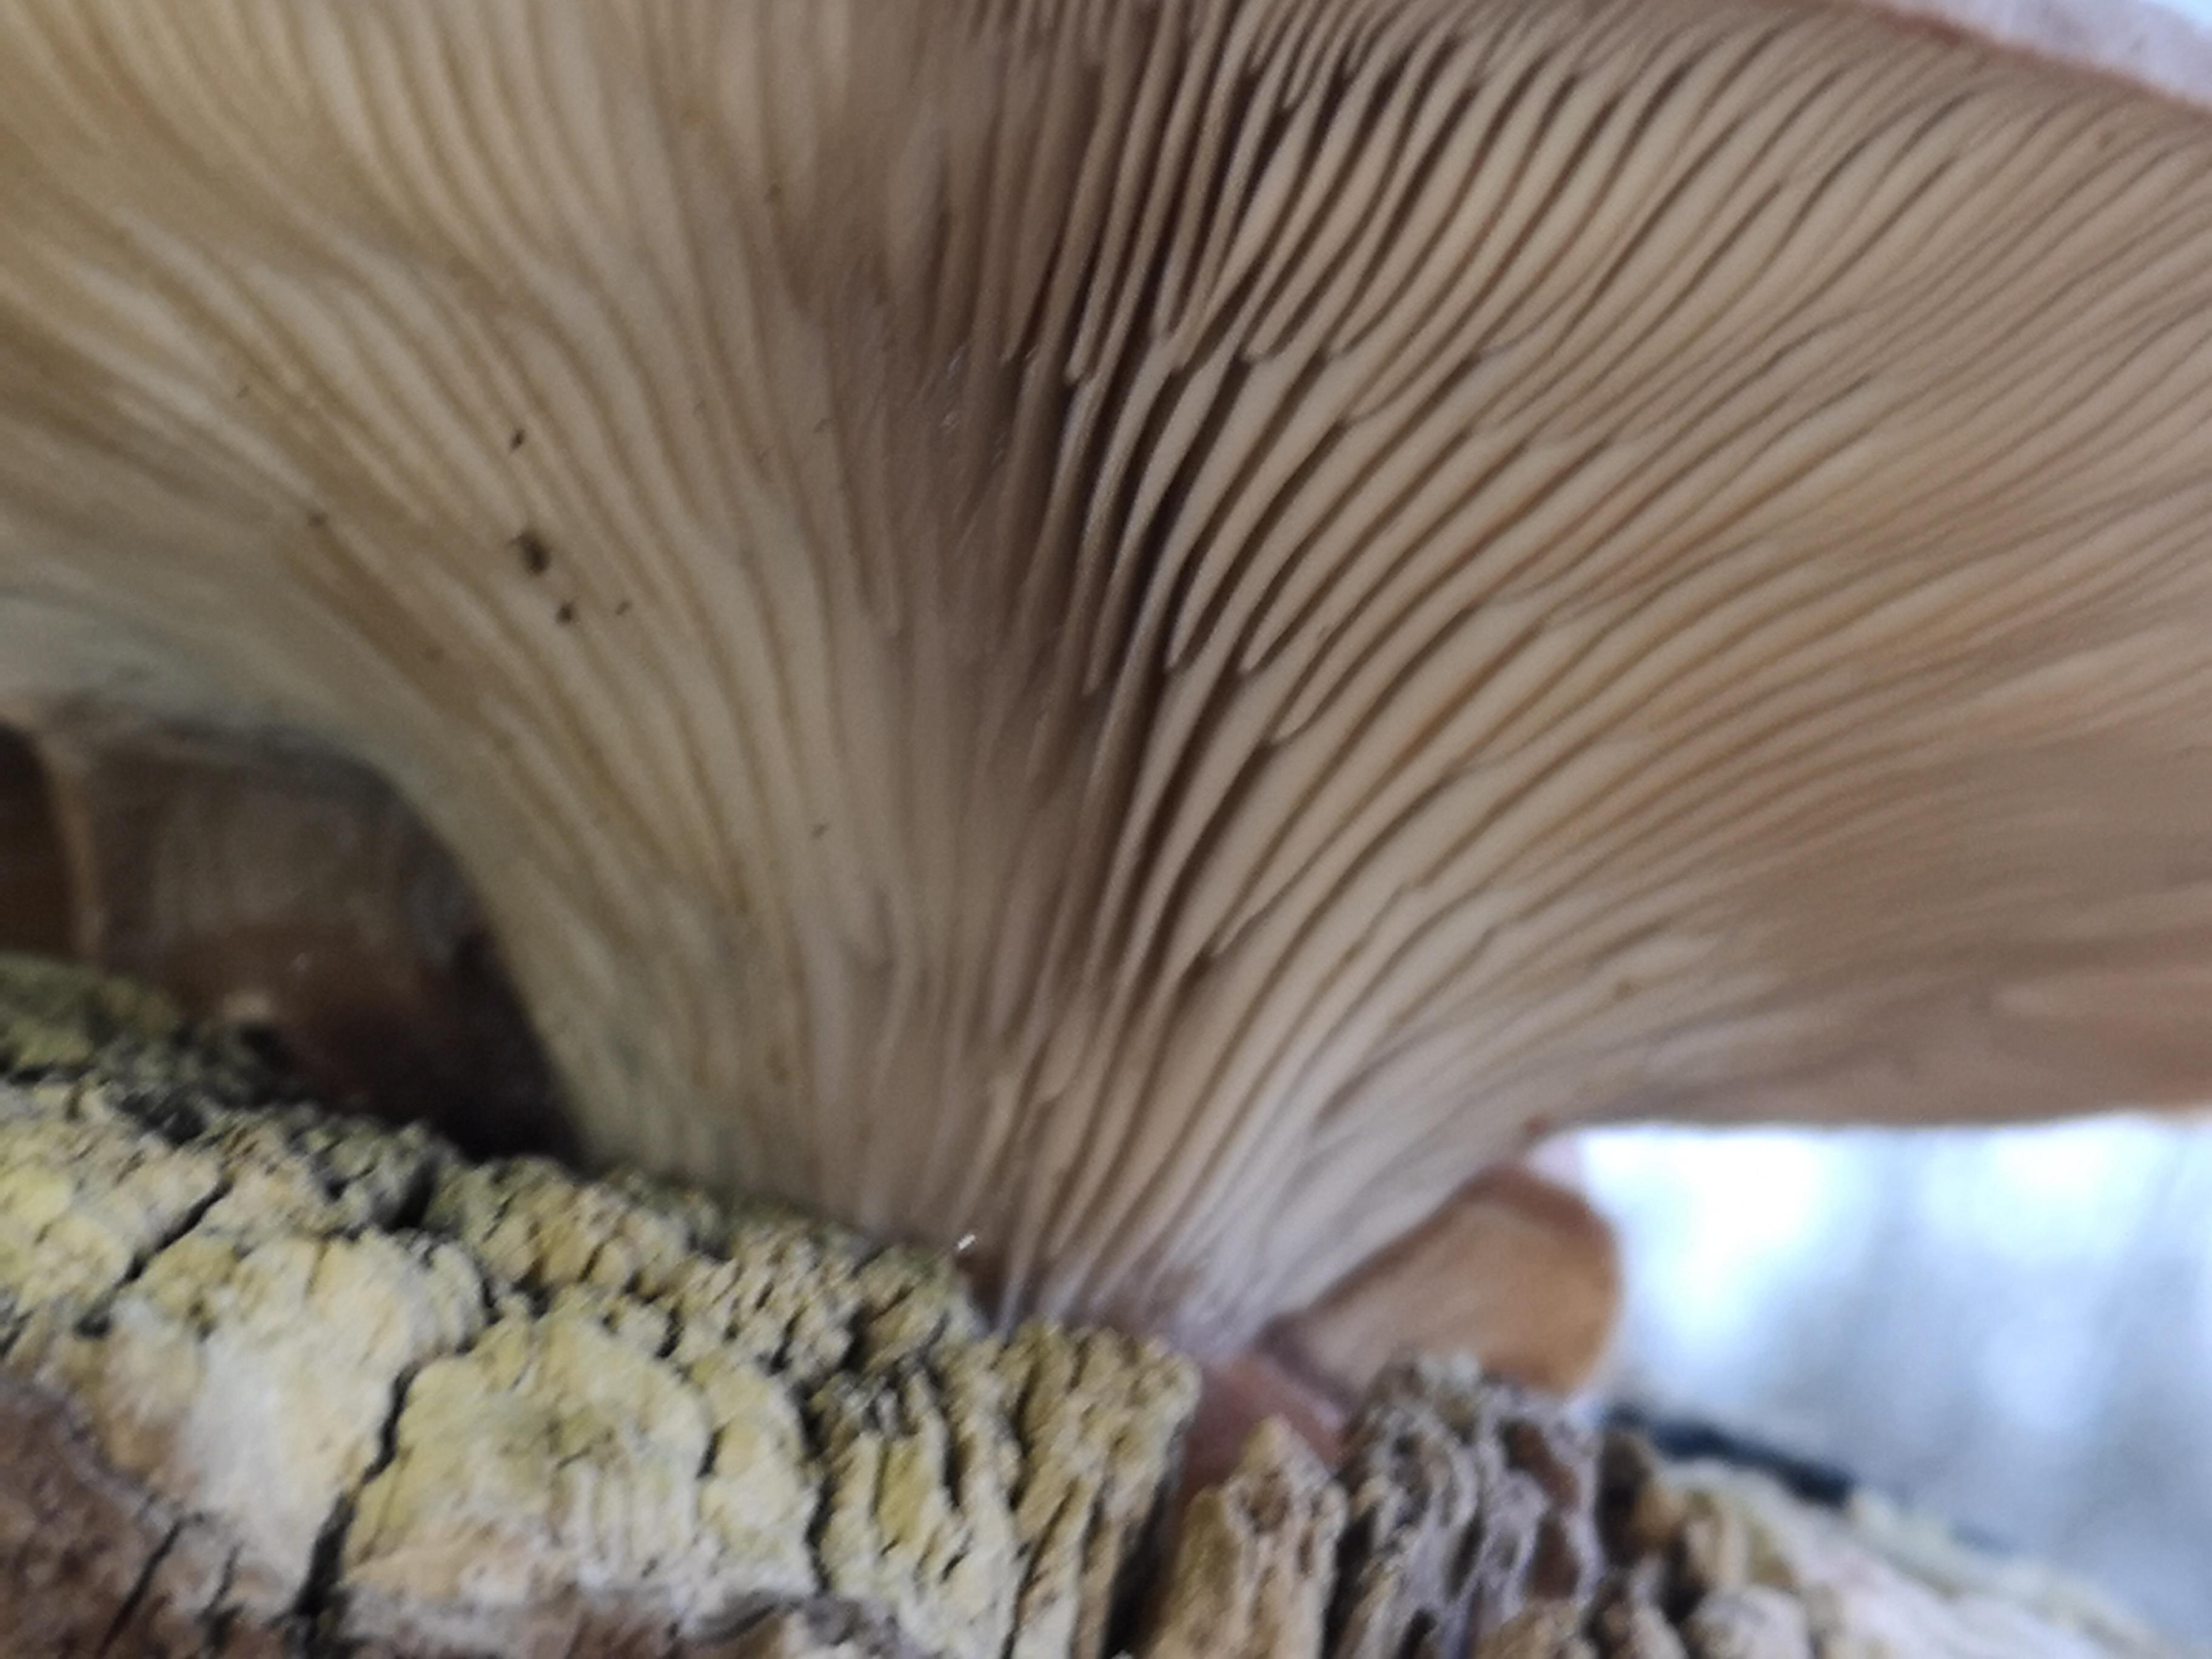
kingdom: Fungi
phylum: Basidiomycota
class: Agaricomycetes
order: Agaricales
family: Pleurotaceae
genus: Pleurotus
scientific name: Pleurotus ostreatus
